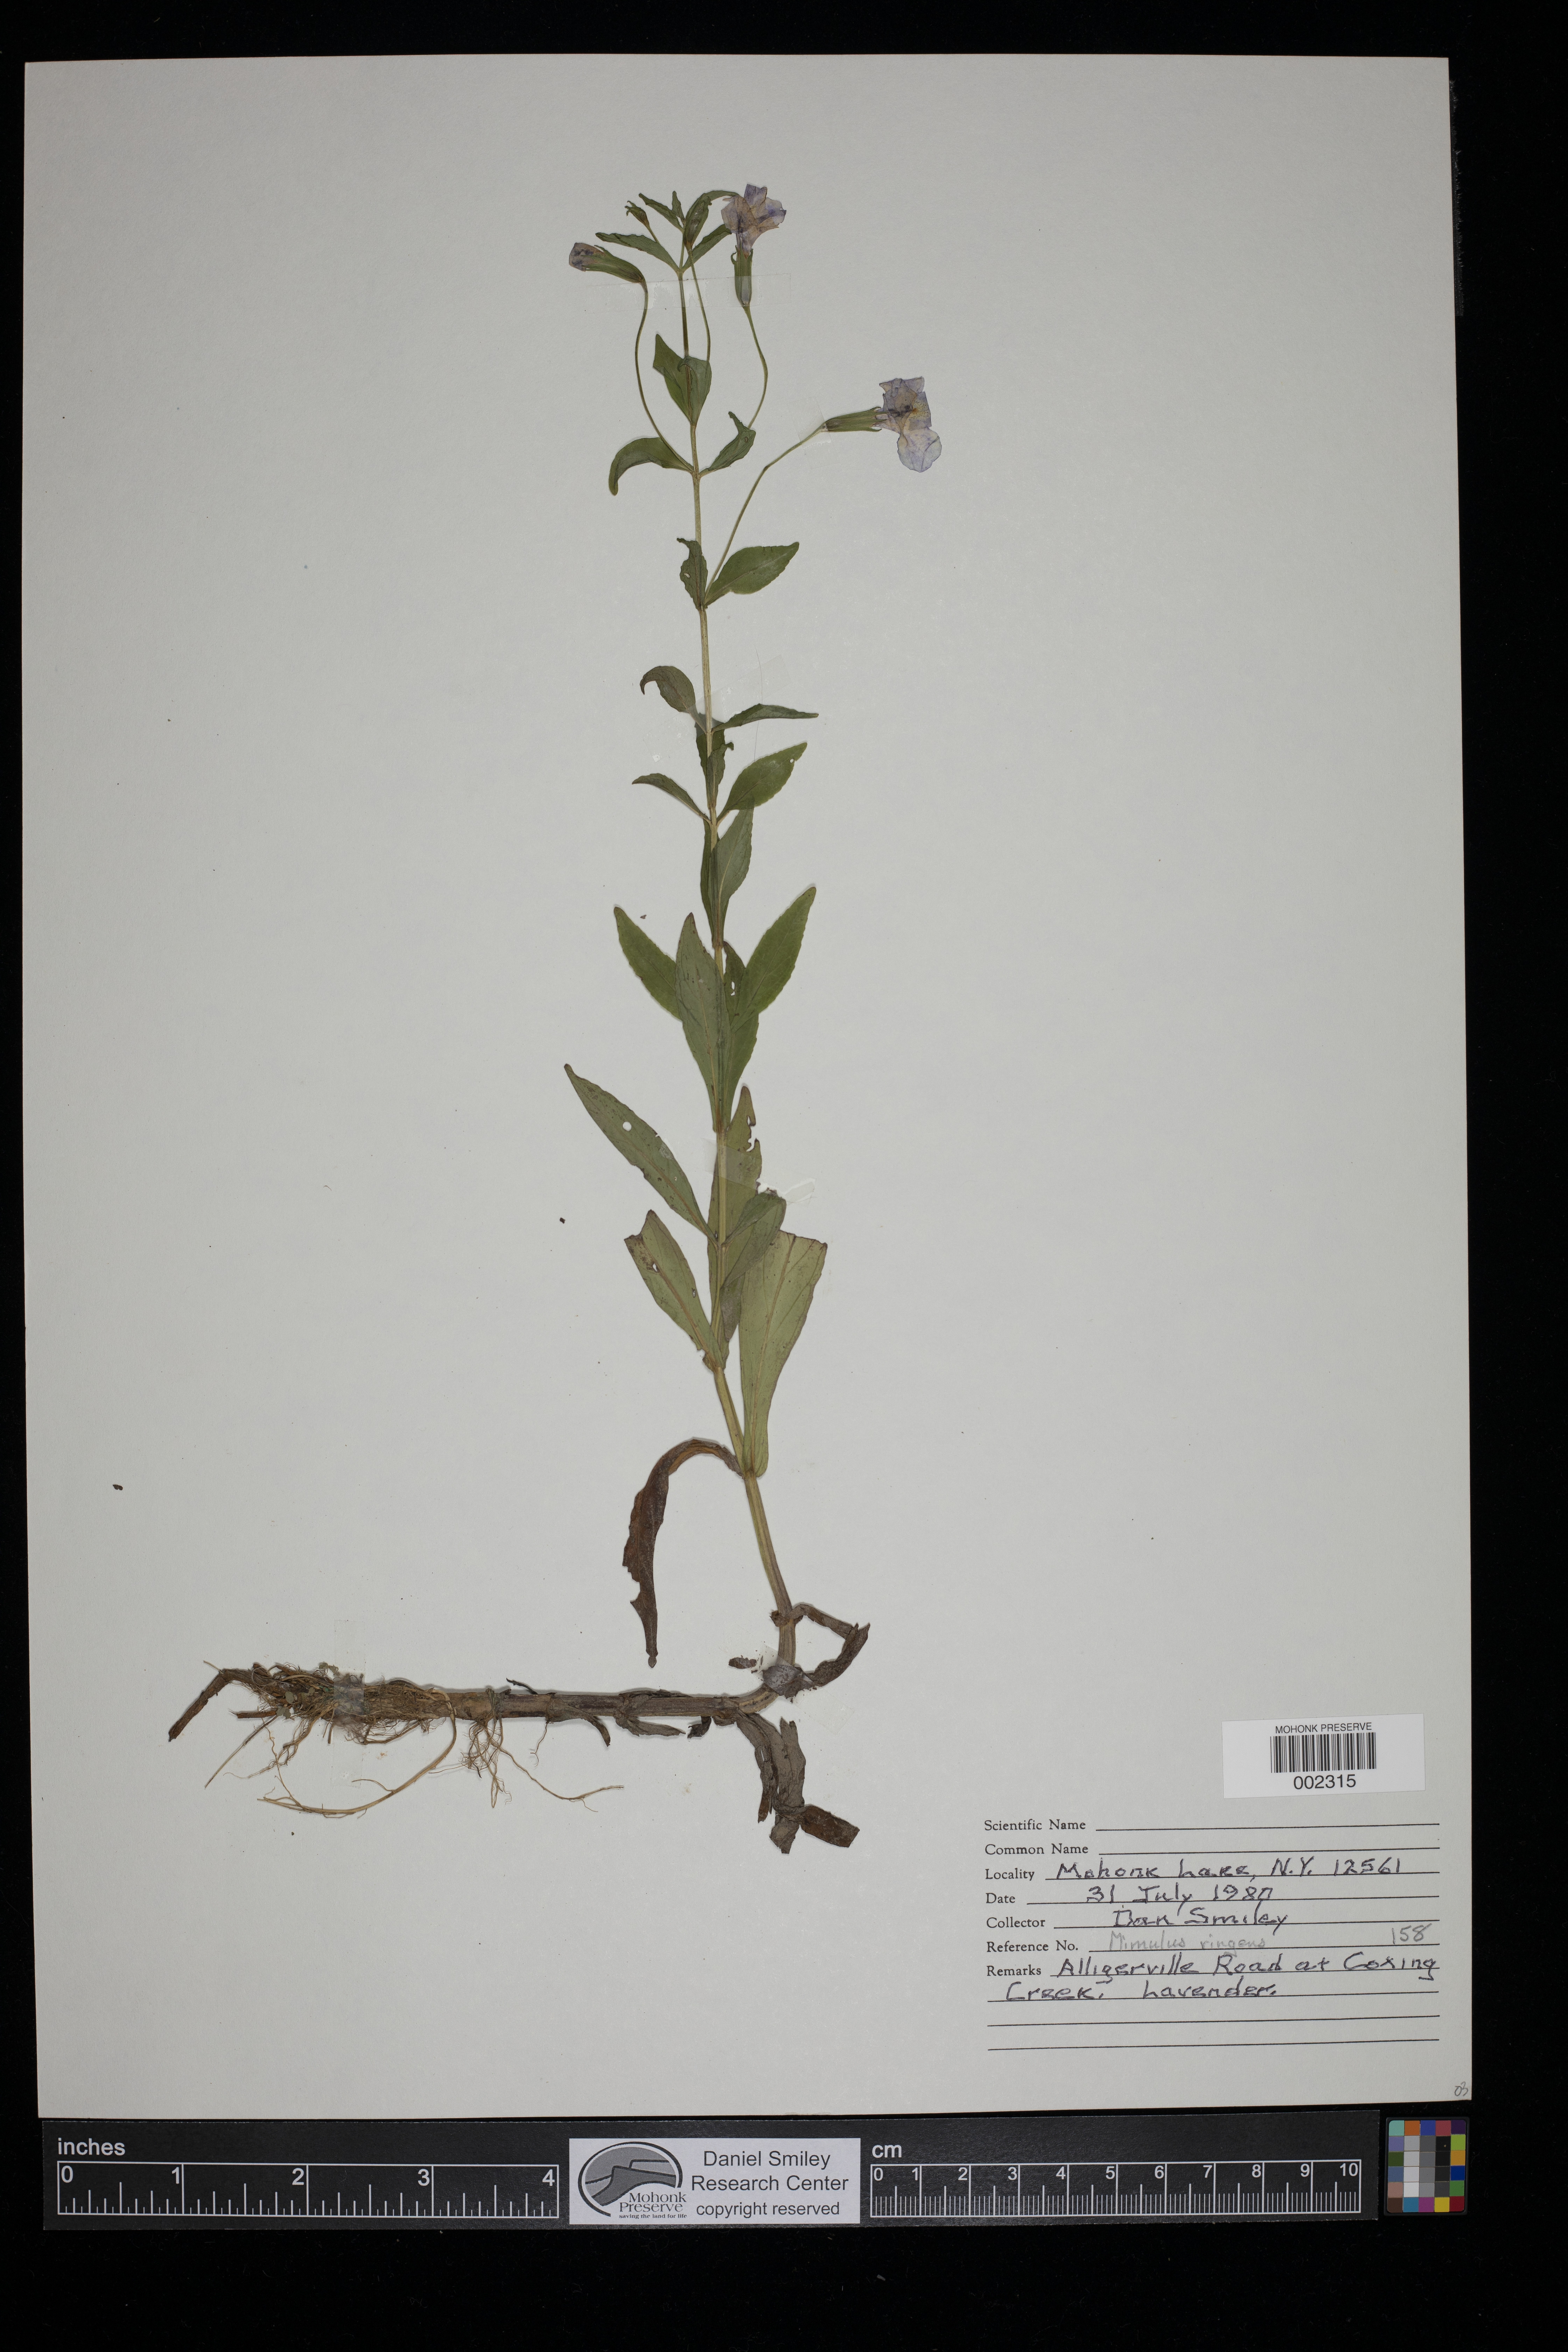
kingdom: Plantae
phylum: Tracheophyta
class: Magnoliopsida
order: Lamiales
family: Phrymaceae
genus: Mimulus
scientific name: Mimulus ringens
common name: Allegheny monkeyflower
